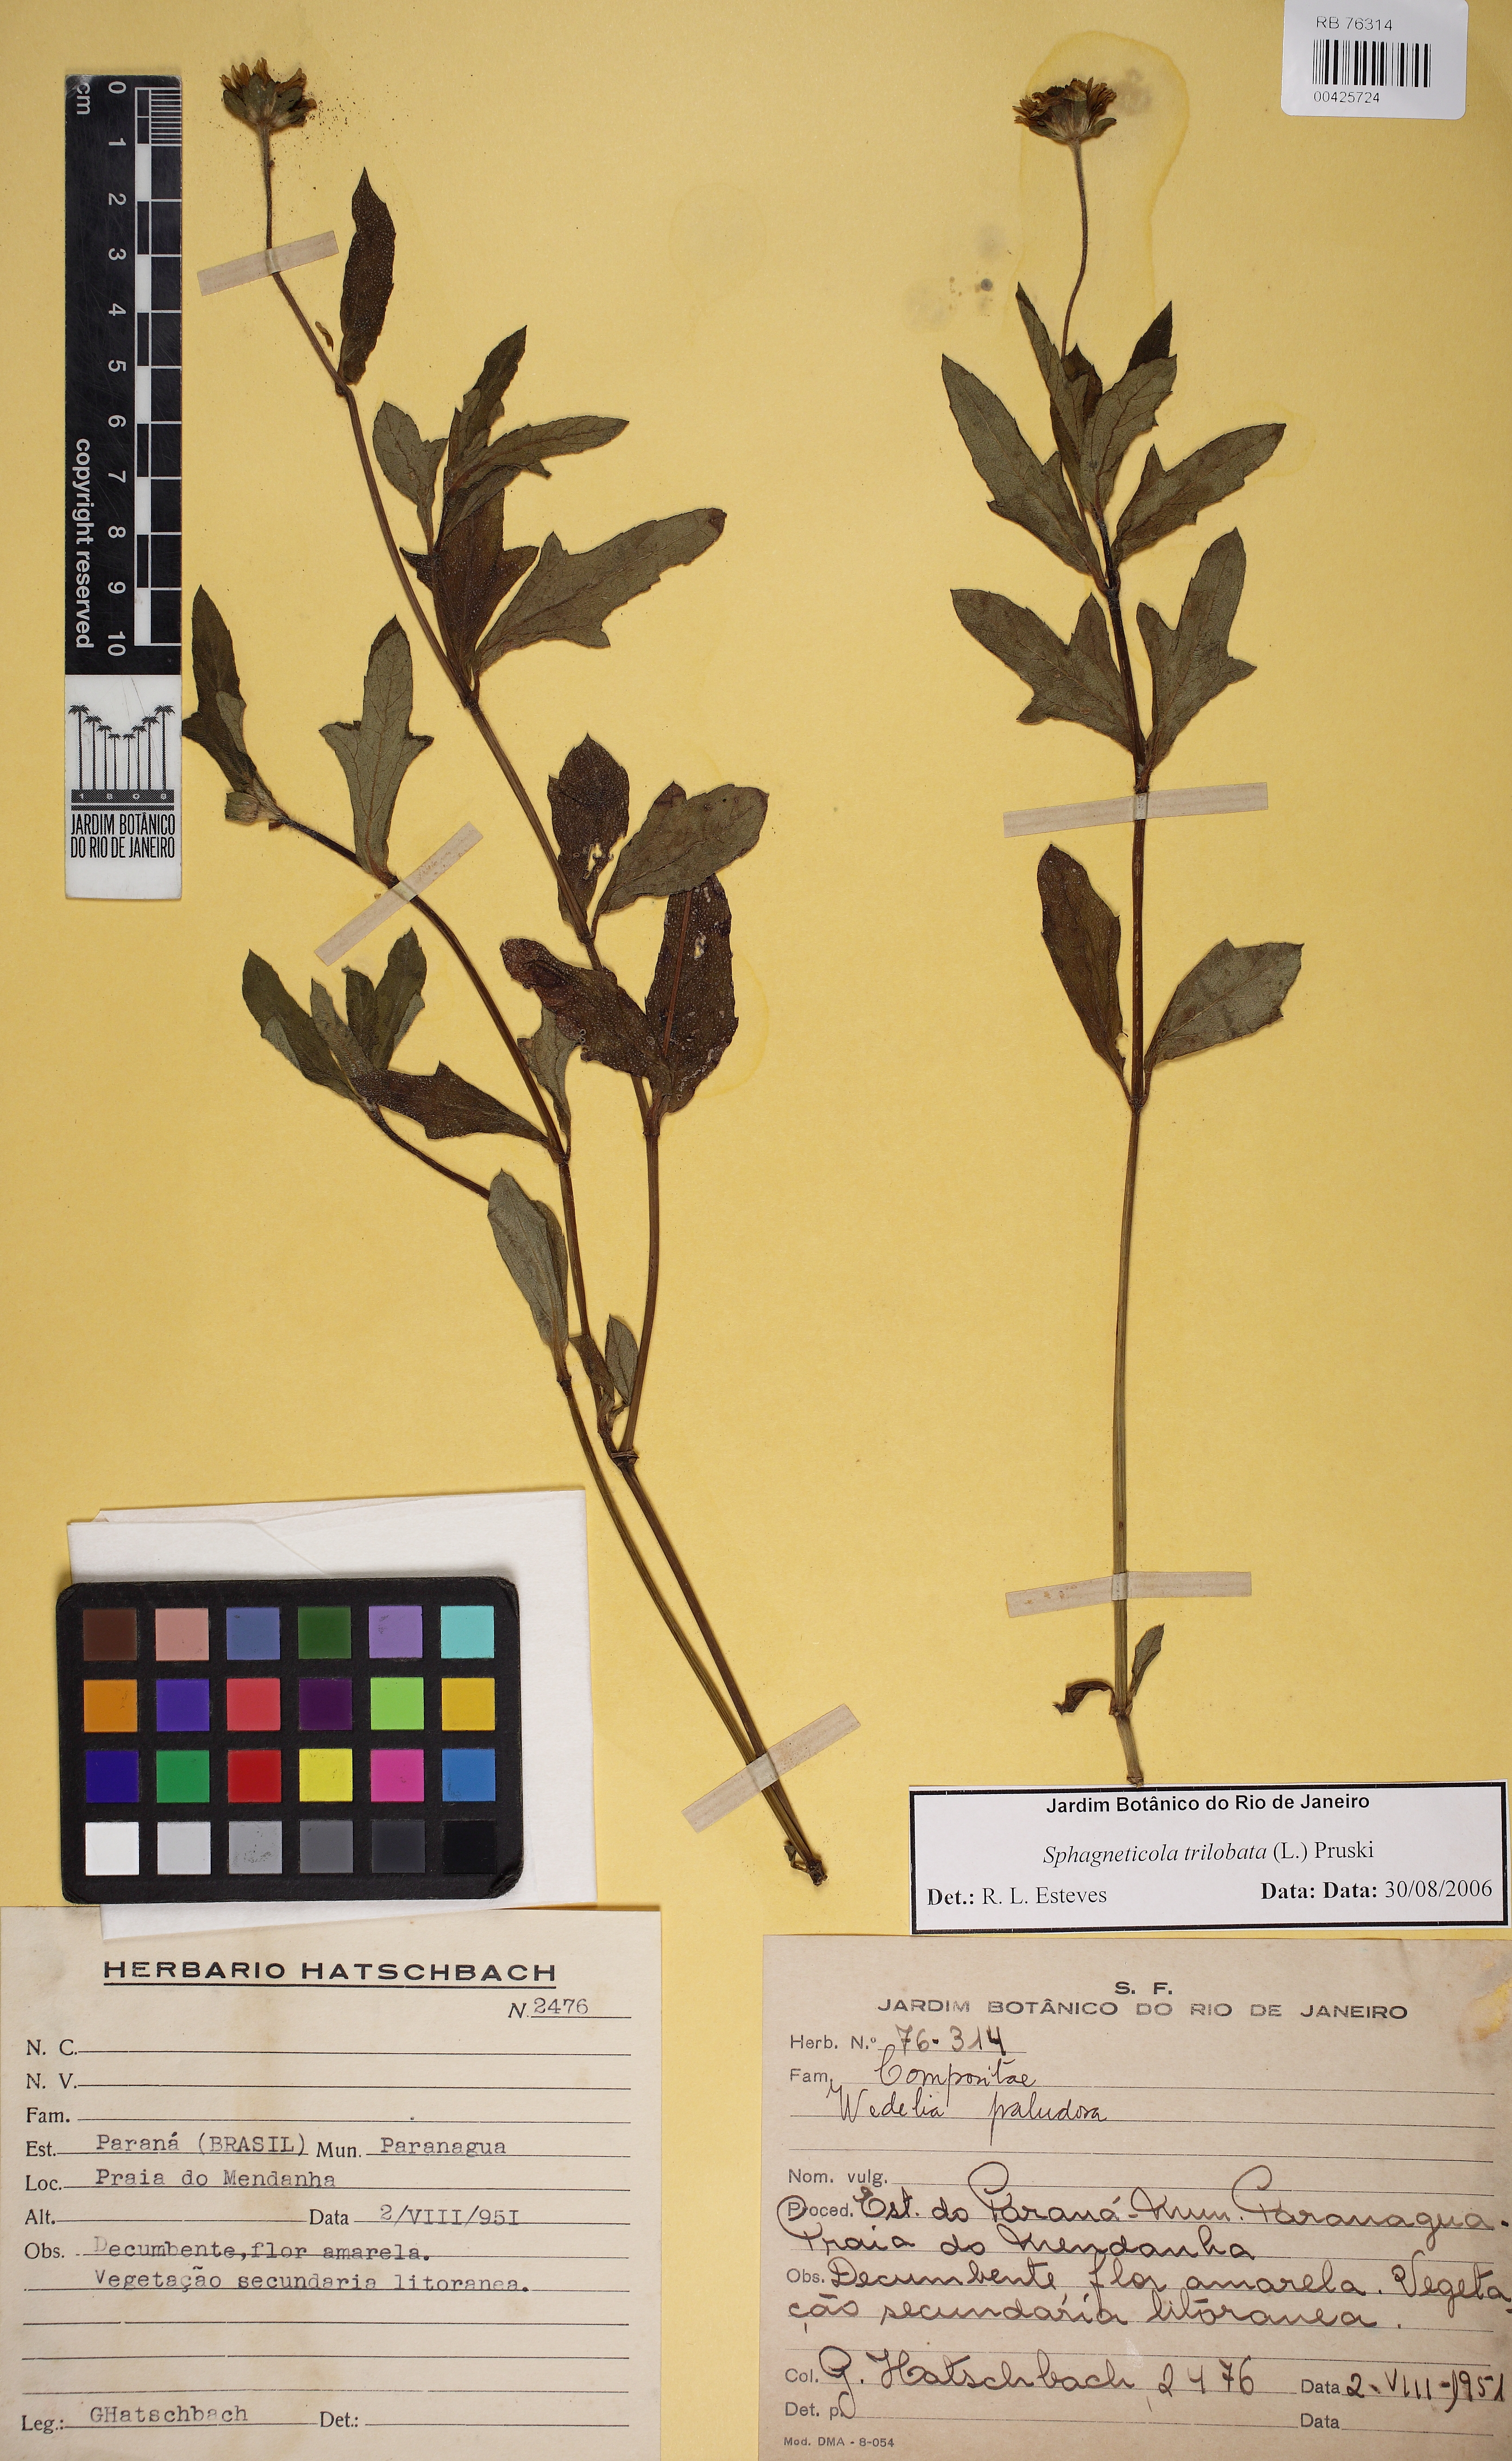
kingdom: Plantae
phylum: Tracheophyta
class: Magnoliopsida
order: Asterales
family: Asteraceae
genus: Sphagneticola
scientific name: Sphagneticola trilobata
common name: Bay biscayne creeping-oxeye
